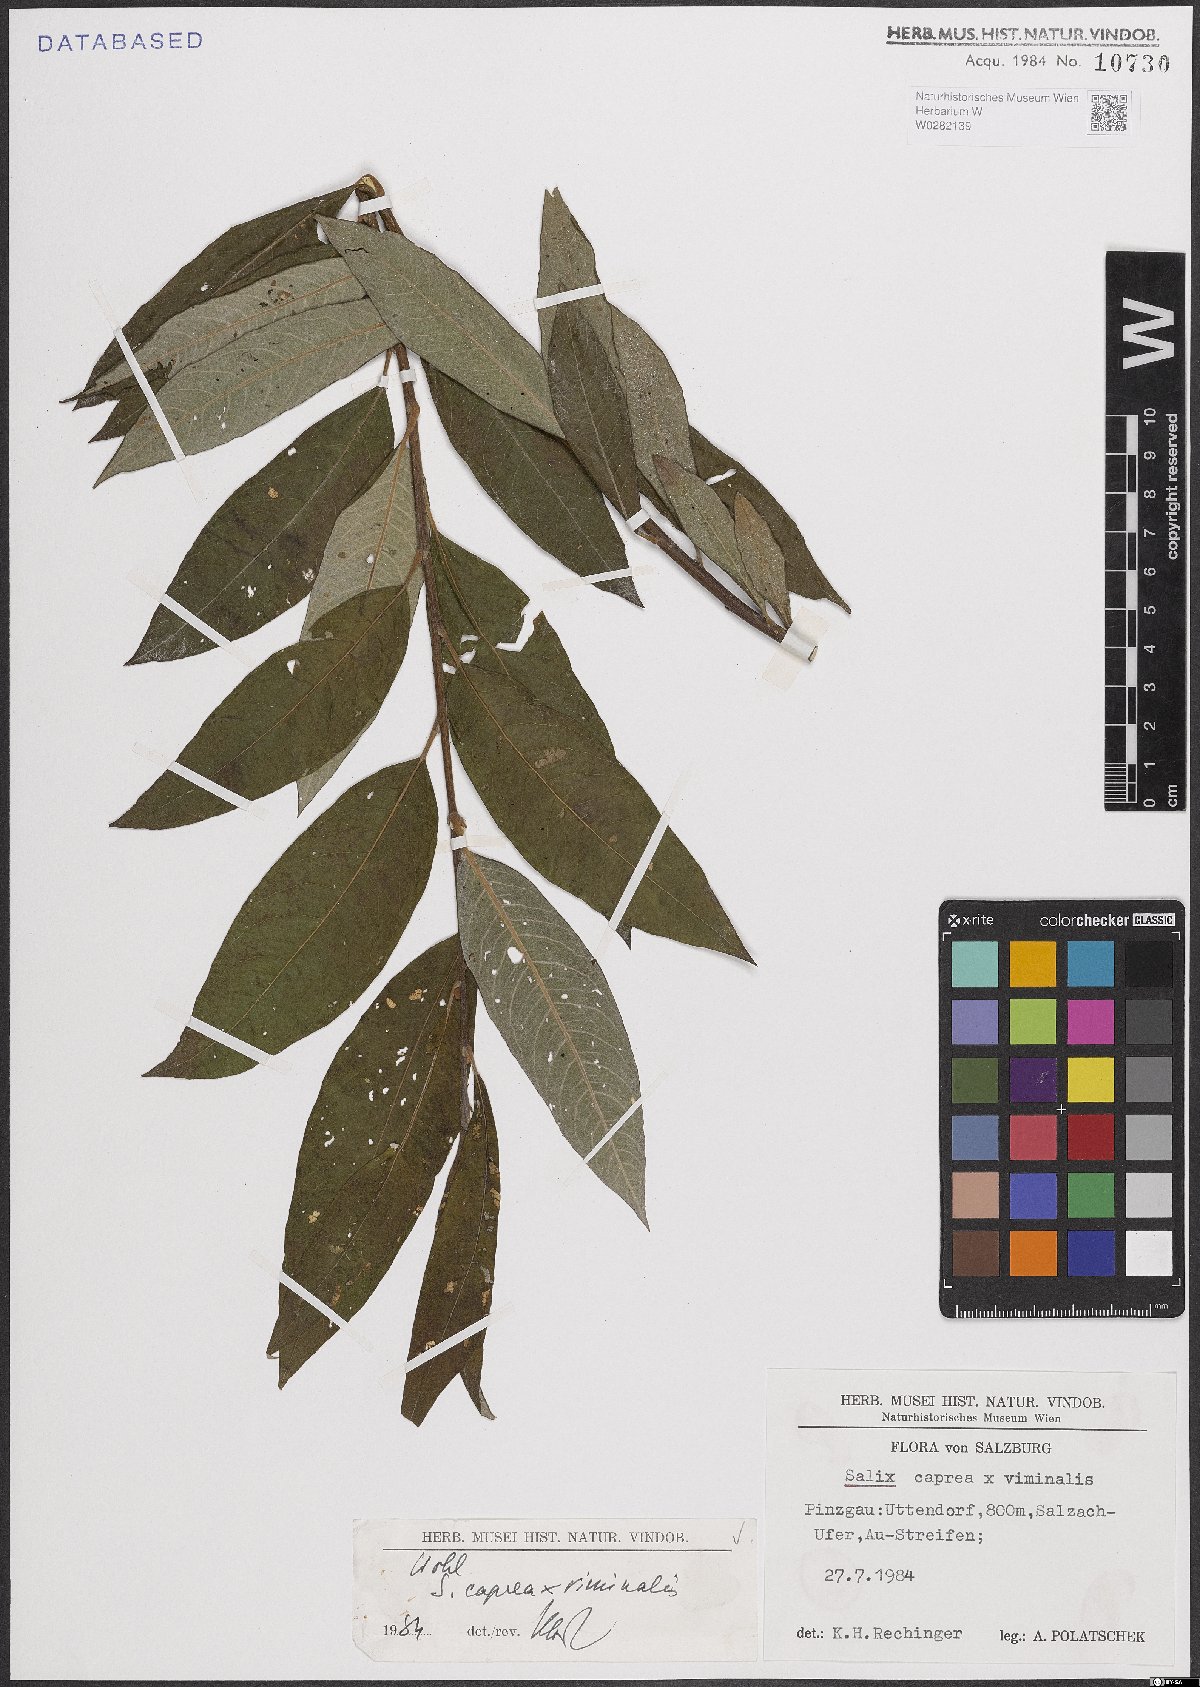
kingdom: Plantae
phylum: Tracheophyta
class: Magnoliopsida
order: Malpighiales
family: Salicaceae
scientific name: Salicaceae
